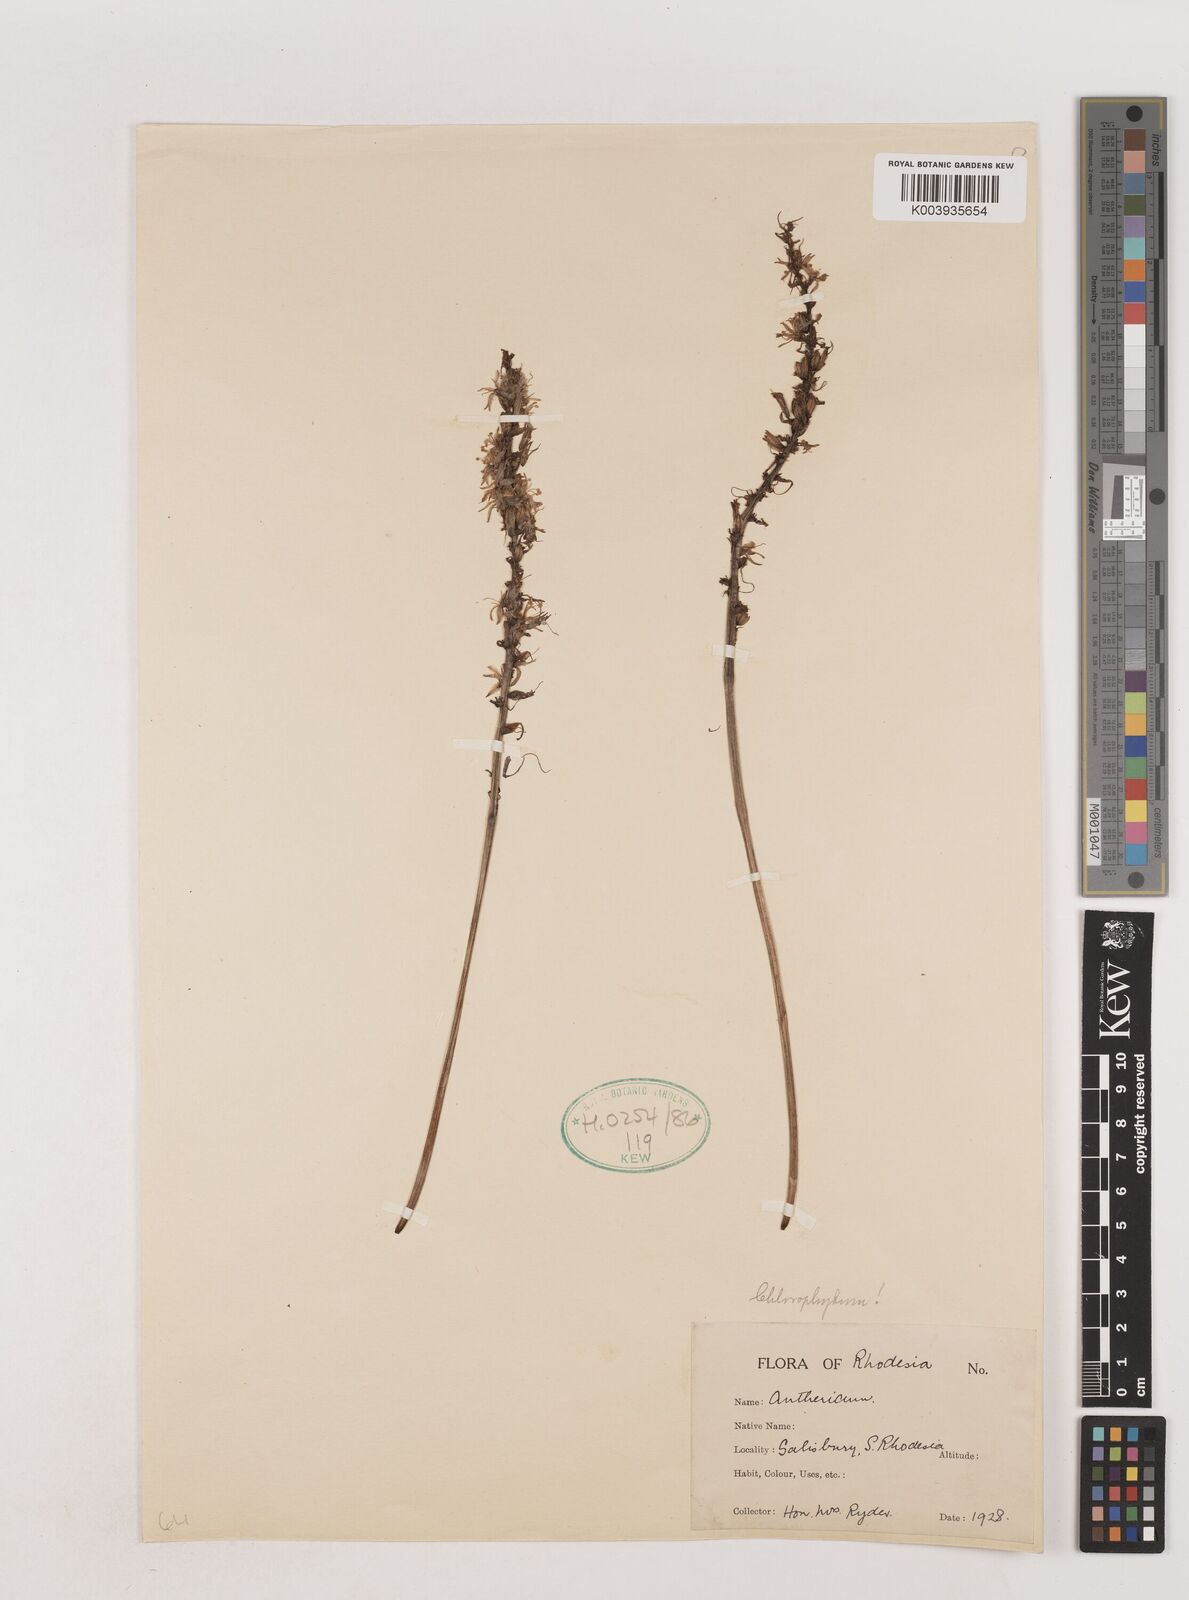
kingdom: Plantae
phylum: Tracheophyta
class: Liliopsida
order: Asparagales
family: Asparagaceae
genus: Chlorophytum
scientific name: Chlorophytum
